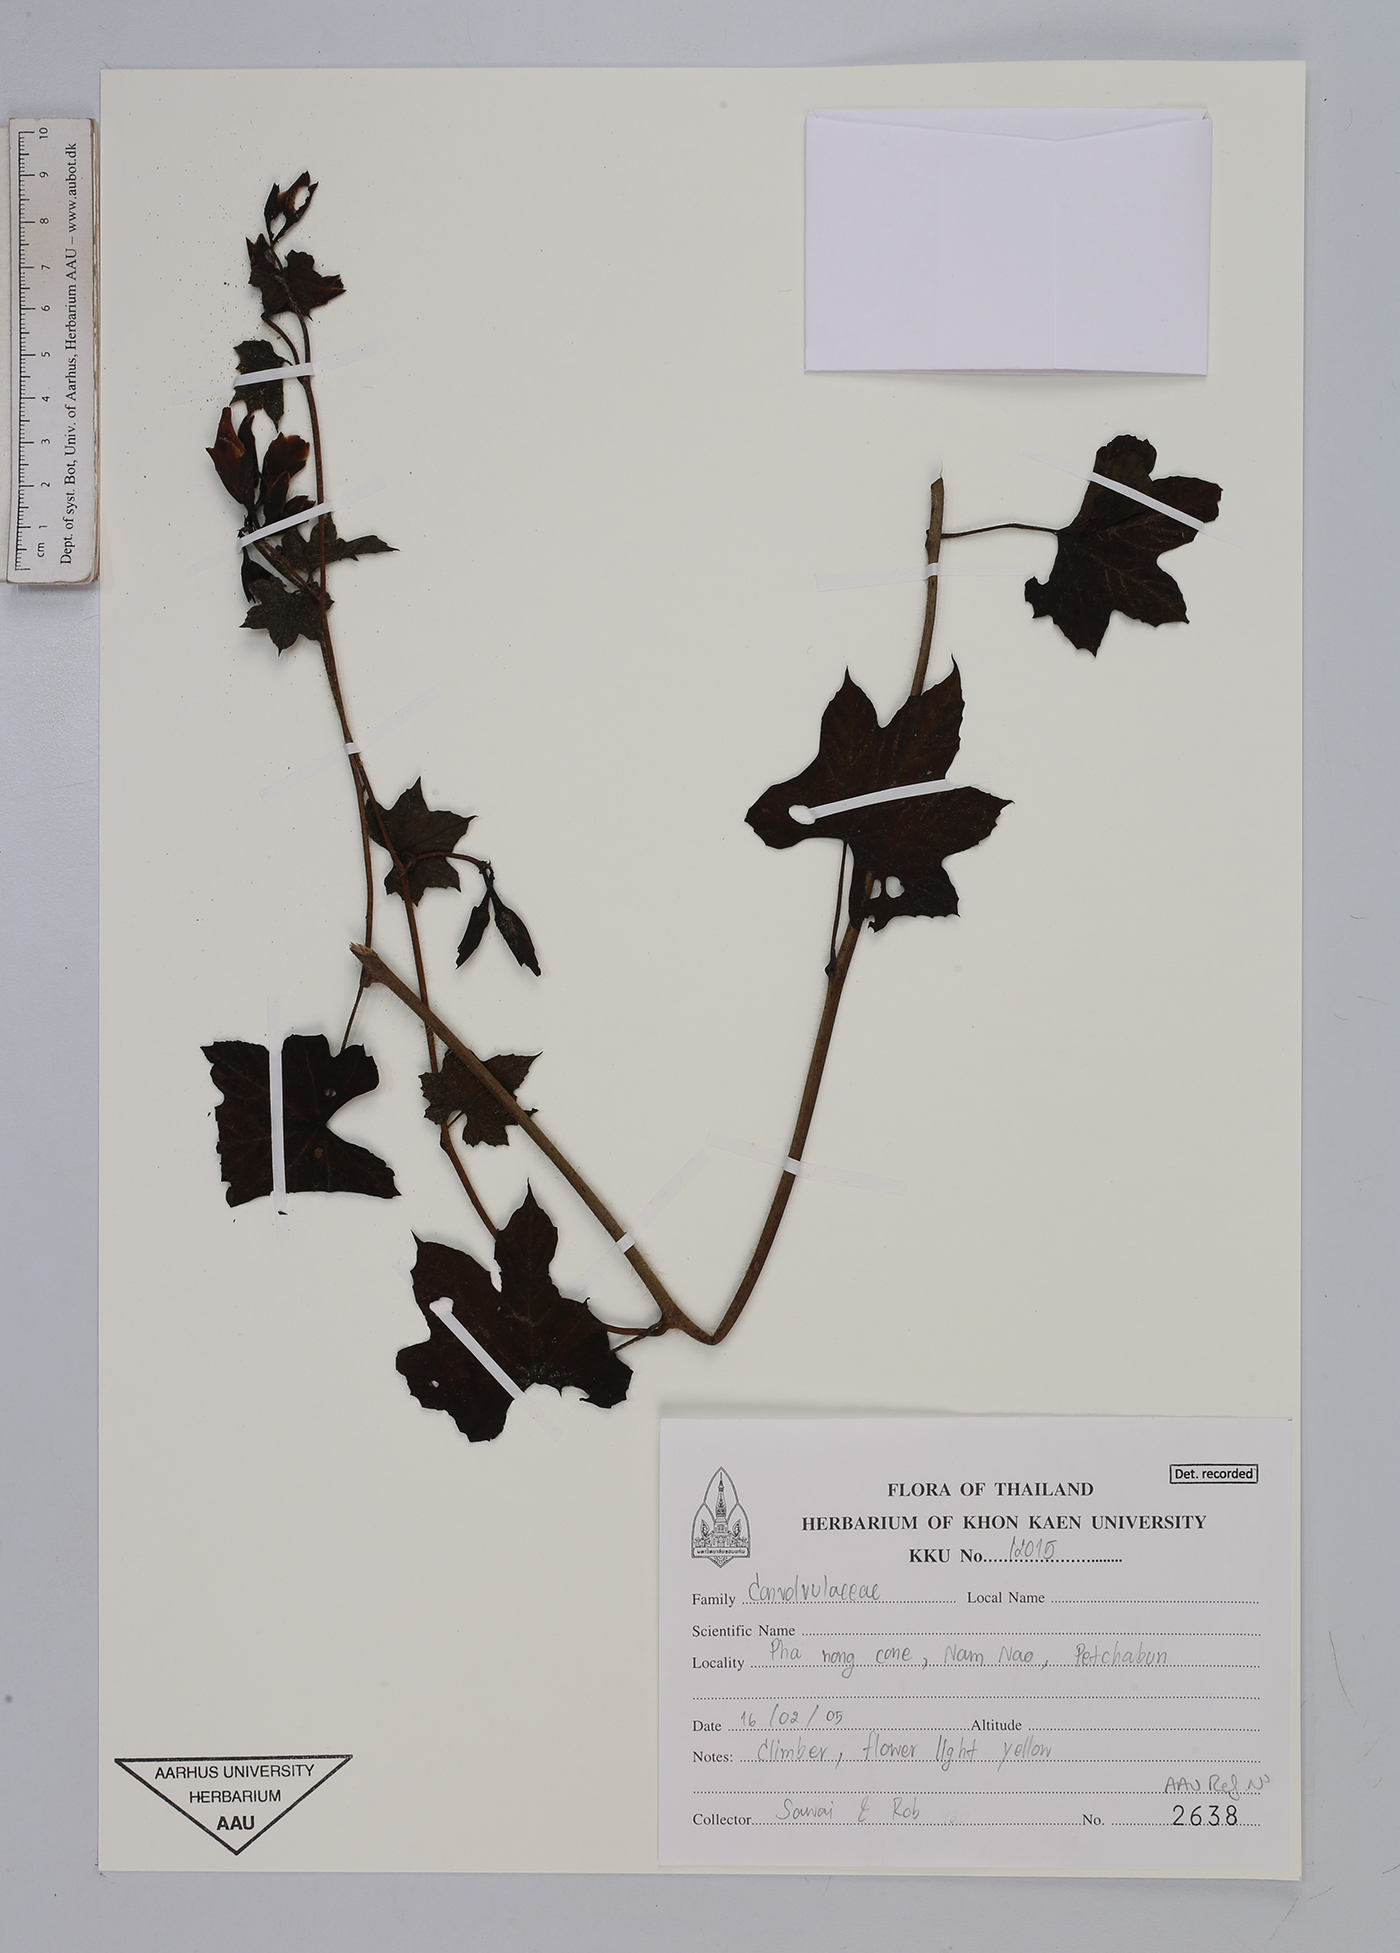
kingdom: Plantae
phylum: Tracheophyta
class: Magnoliopsida
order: Solanales
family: Convolvulaceae
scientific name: Convolvulaceae
